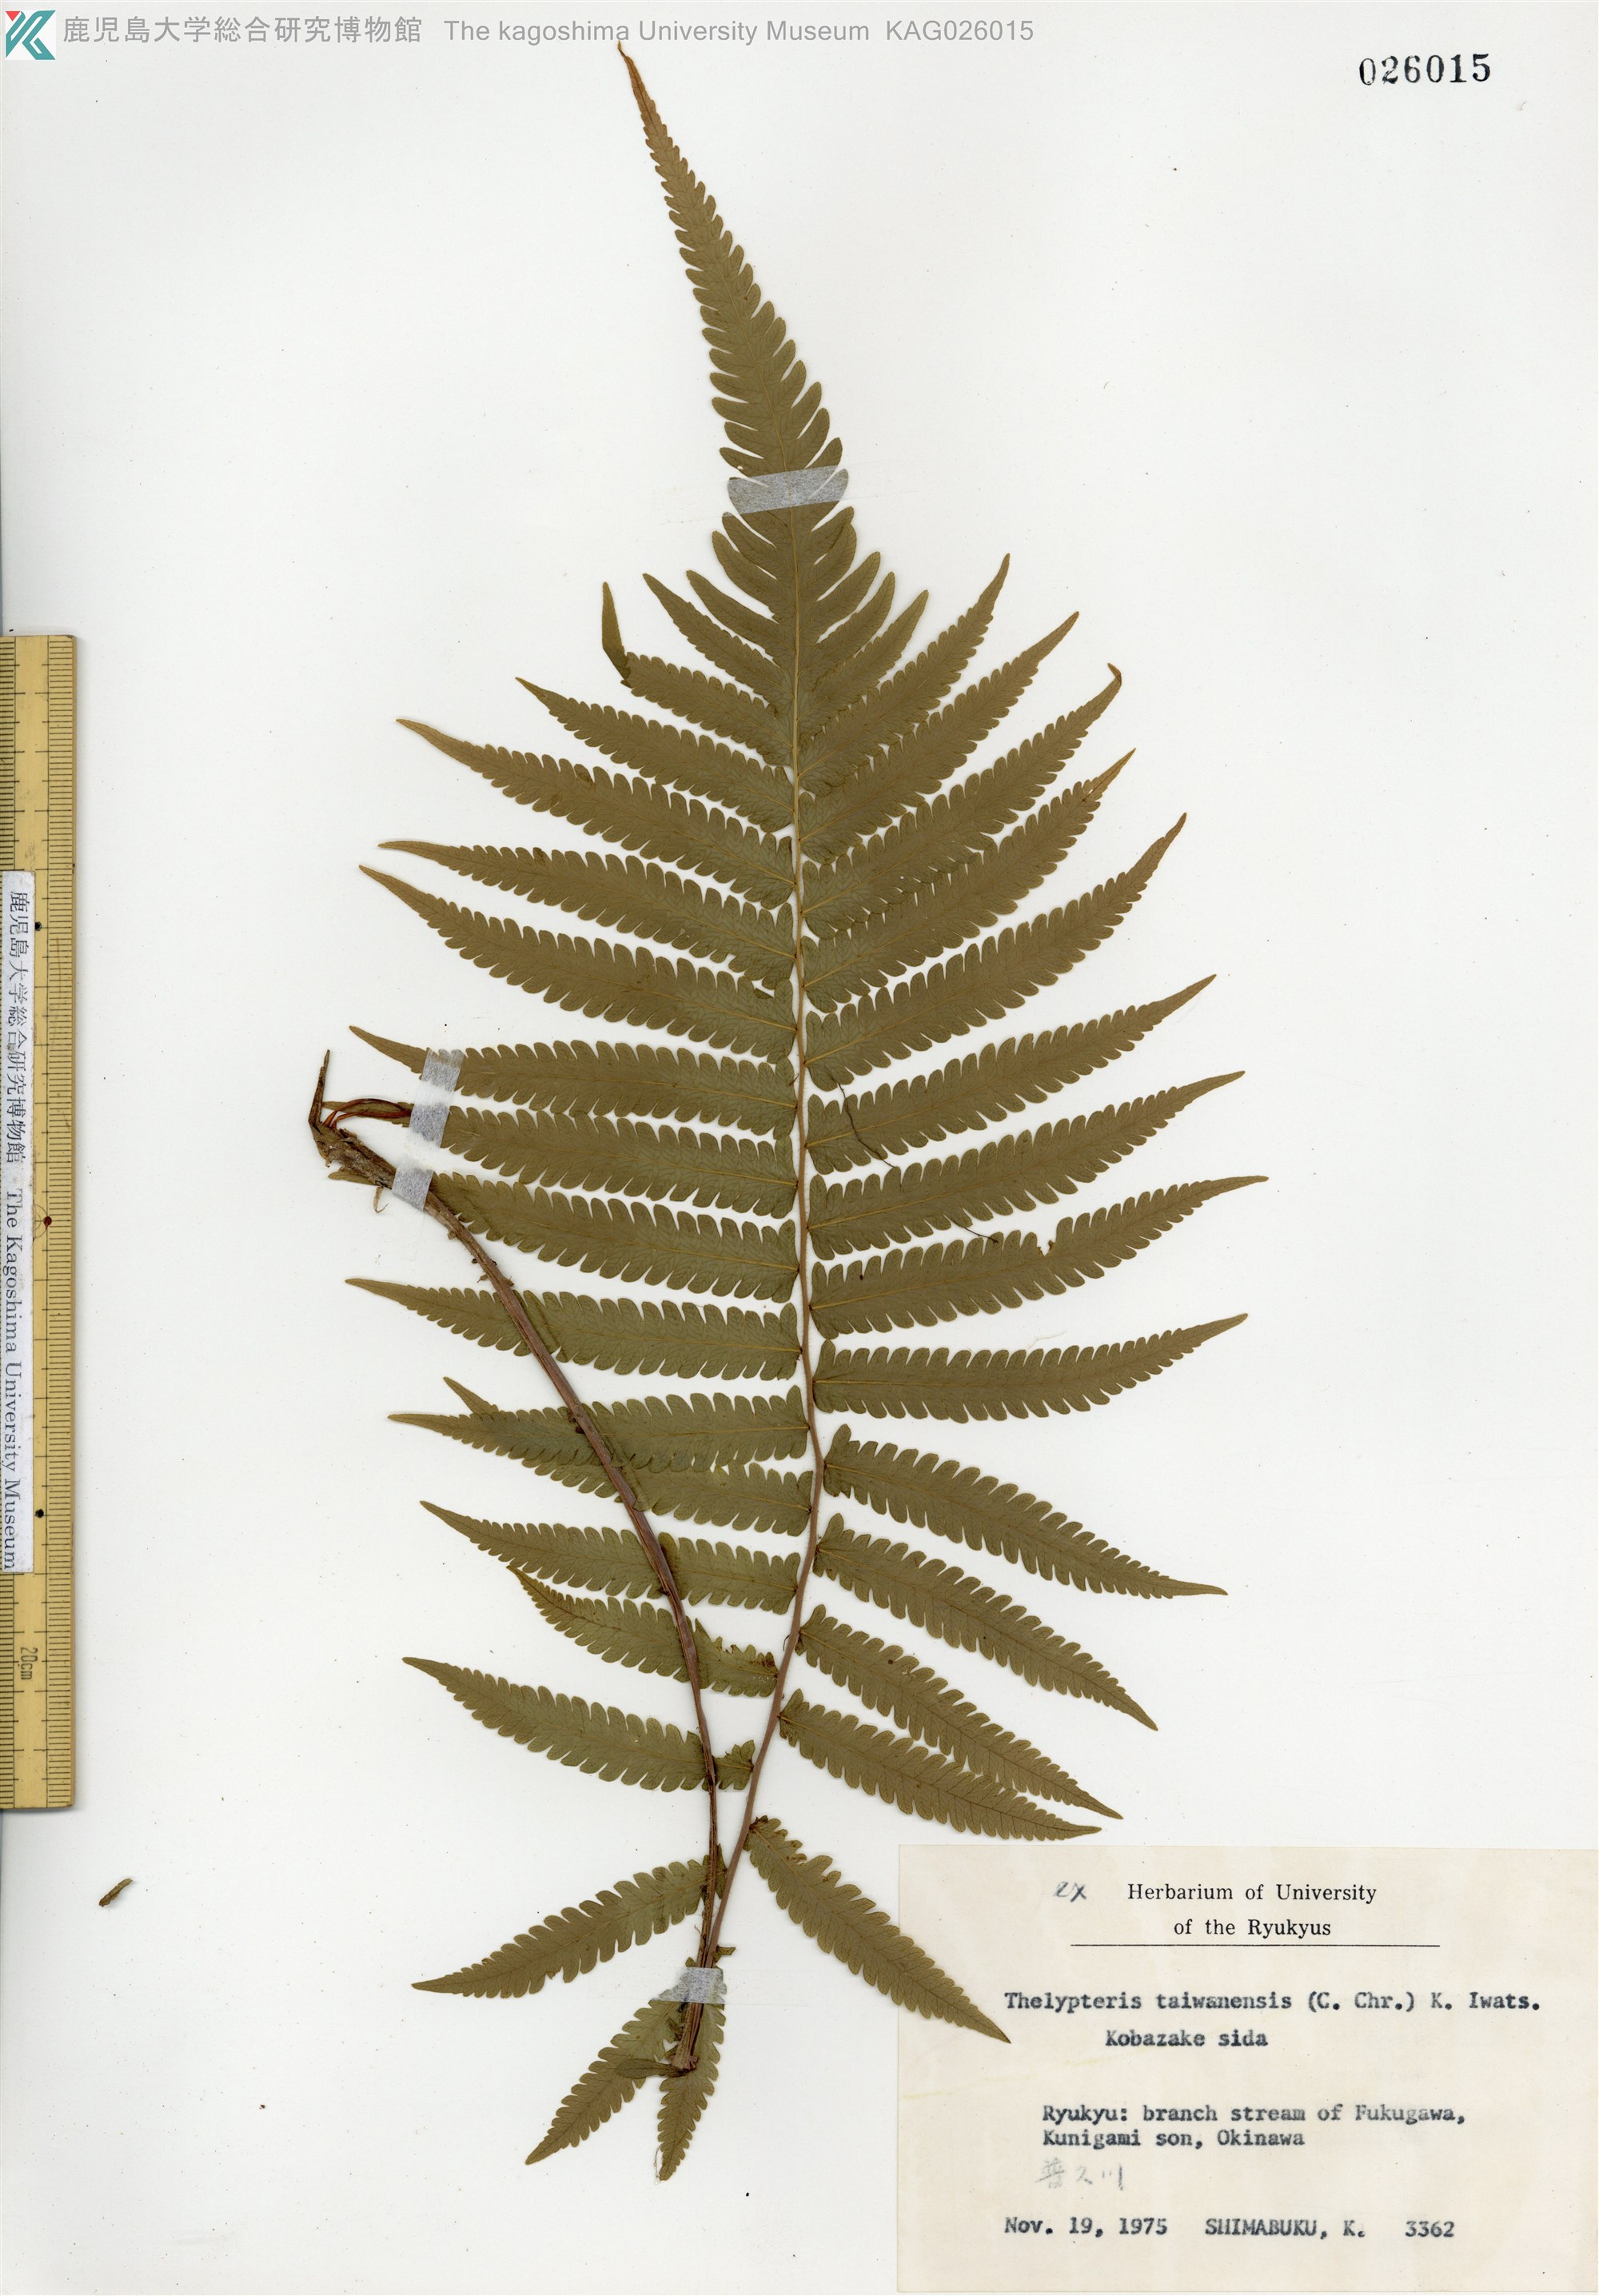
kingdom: Plantae
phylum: Tracheophyta
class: Polypodiopsida
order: Polypodiales
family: Thelypteridaceae
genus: Sphaerostephanos
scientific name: Sphaerostephanos taiwanensis
